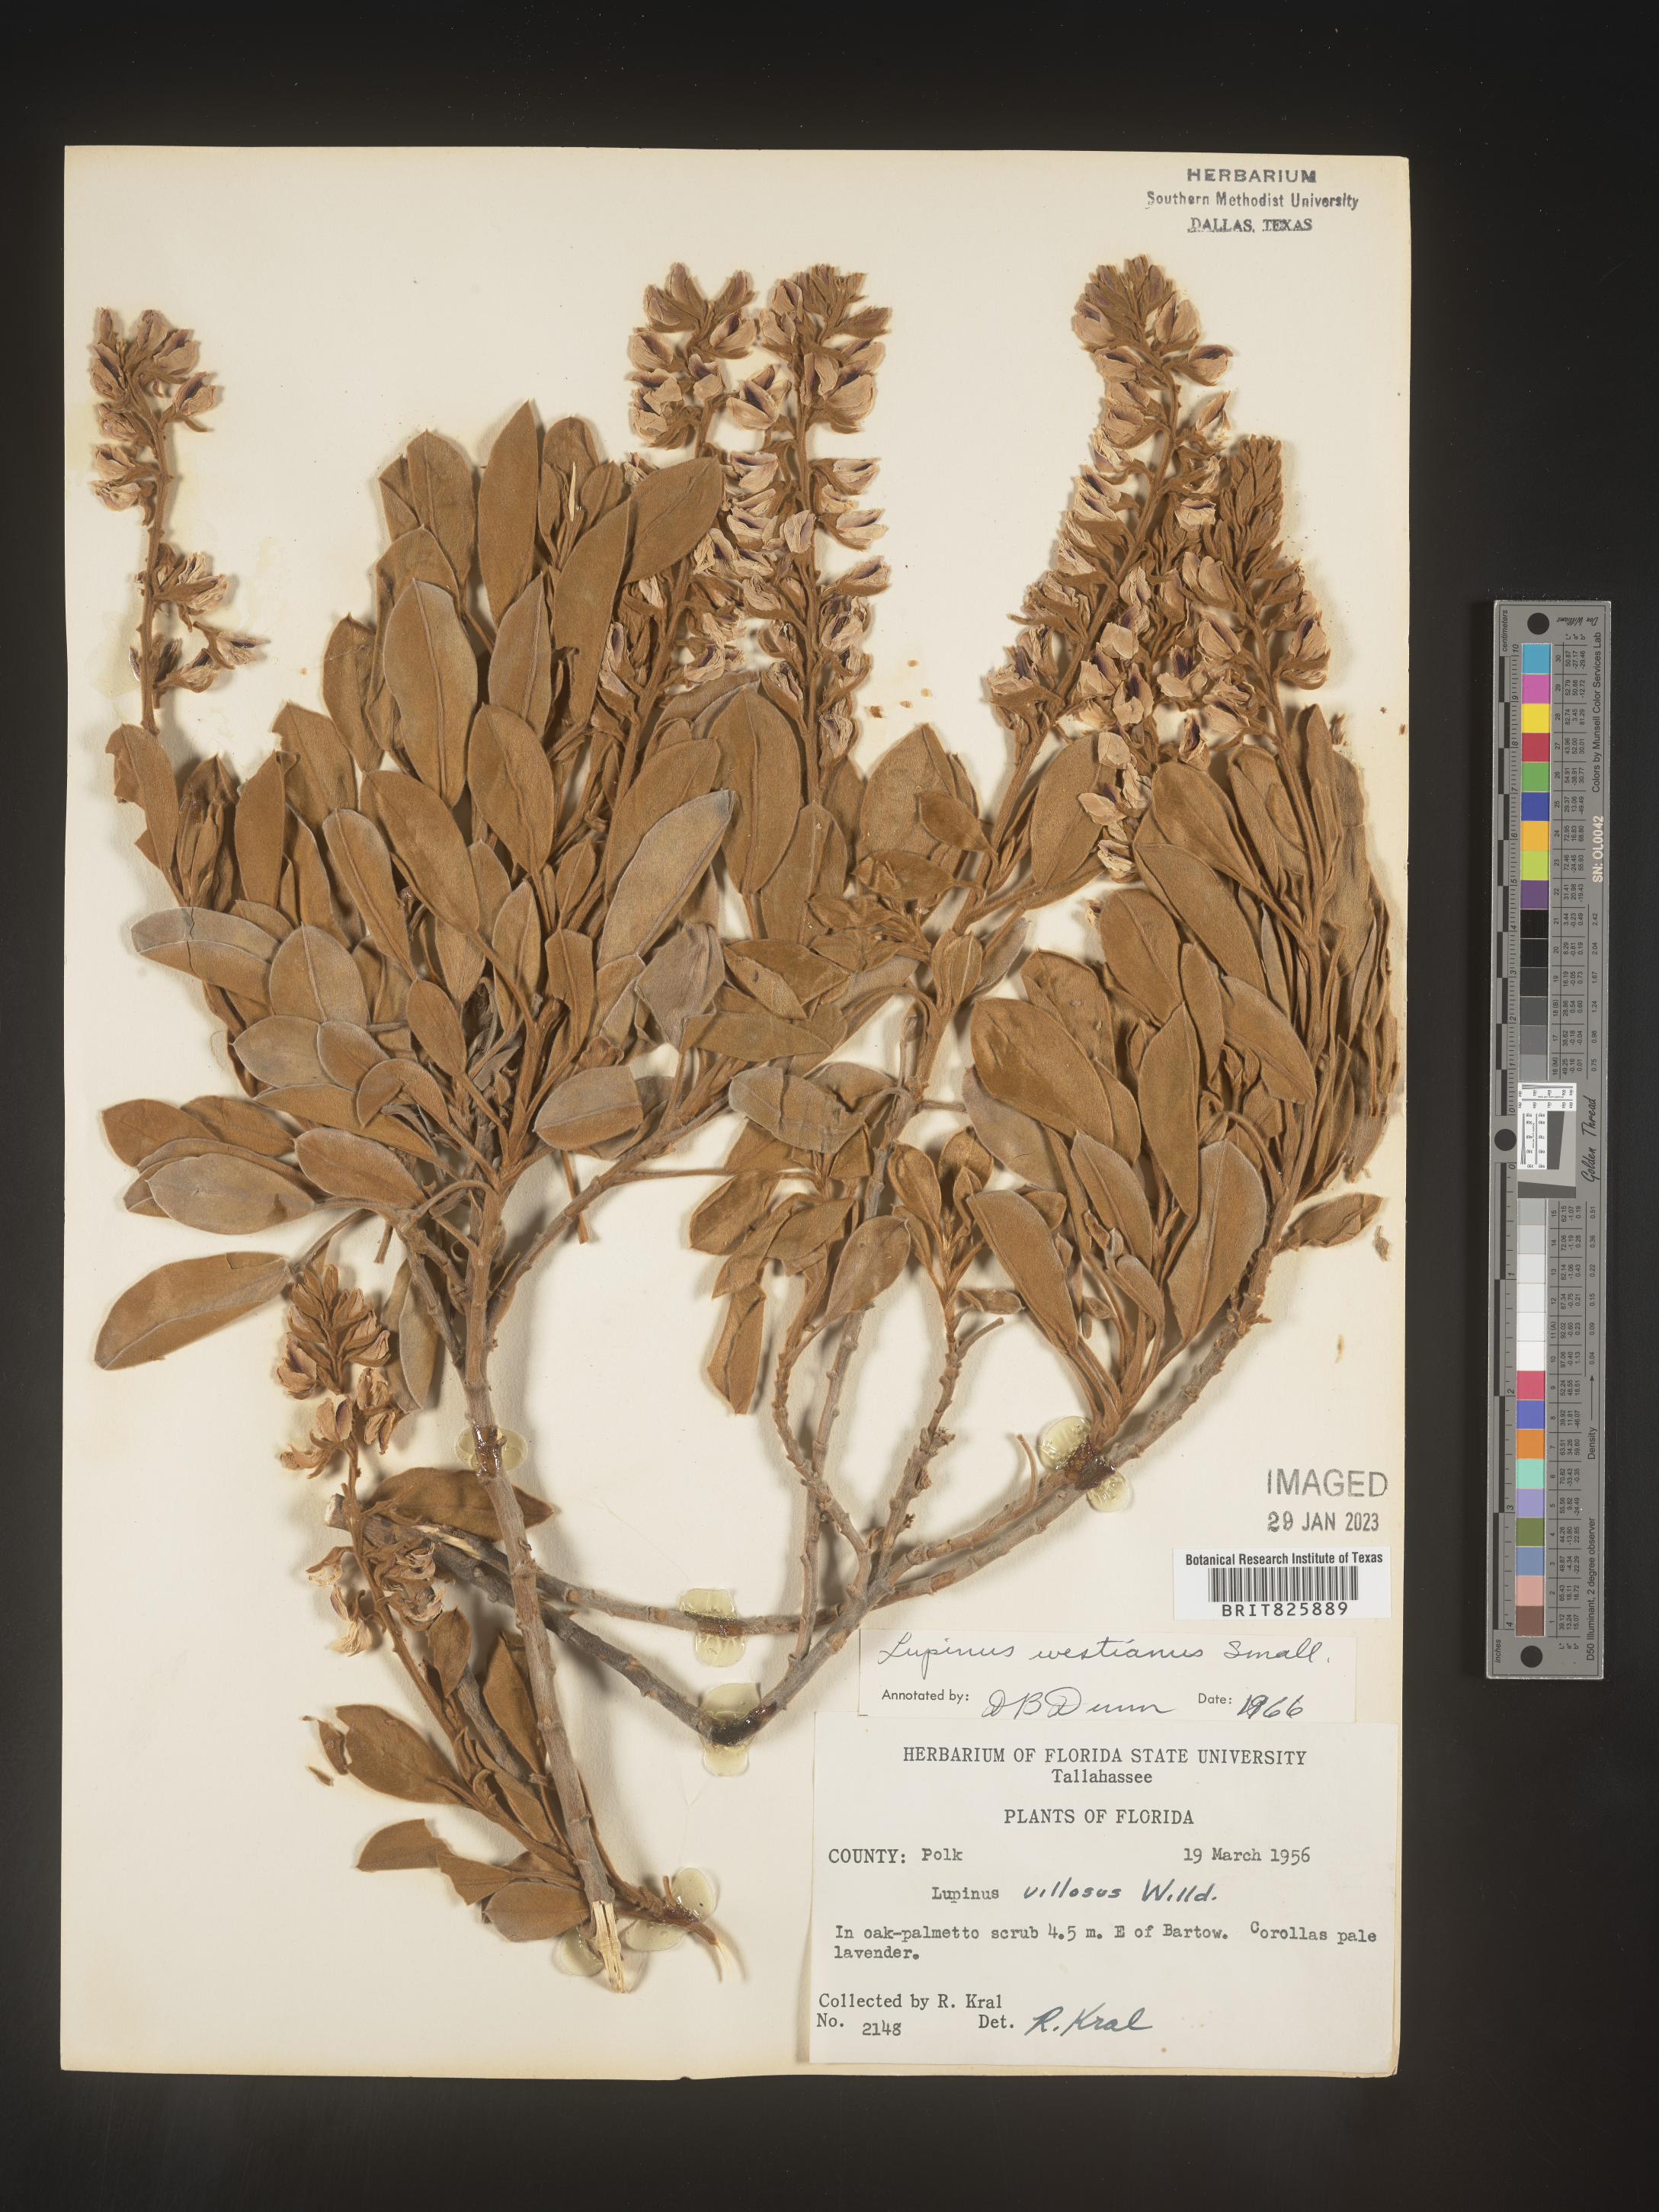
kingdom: Plantae
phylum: Tracheophyta
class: Magnoliopsida
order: Fabales
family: Fabaceae
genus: Lupinus
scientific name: Lupinus
